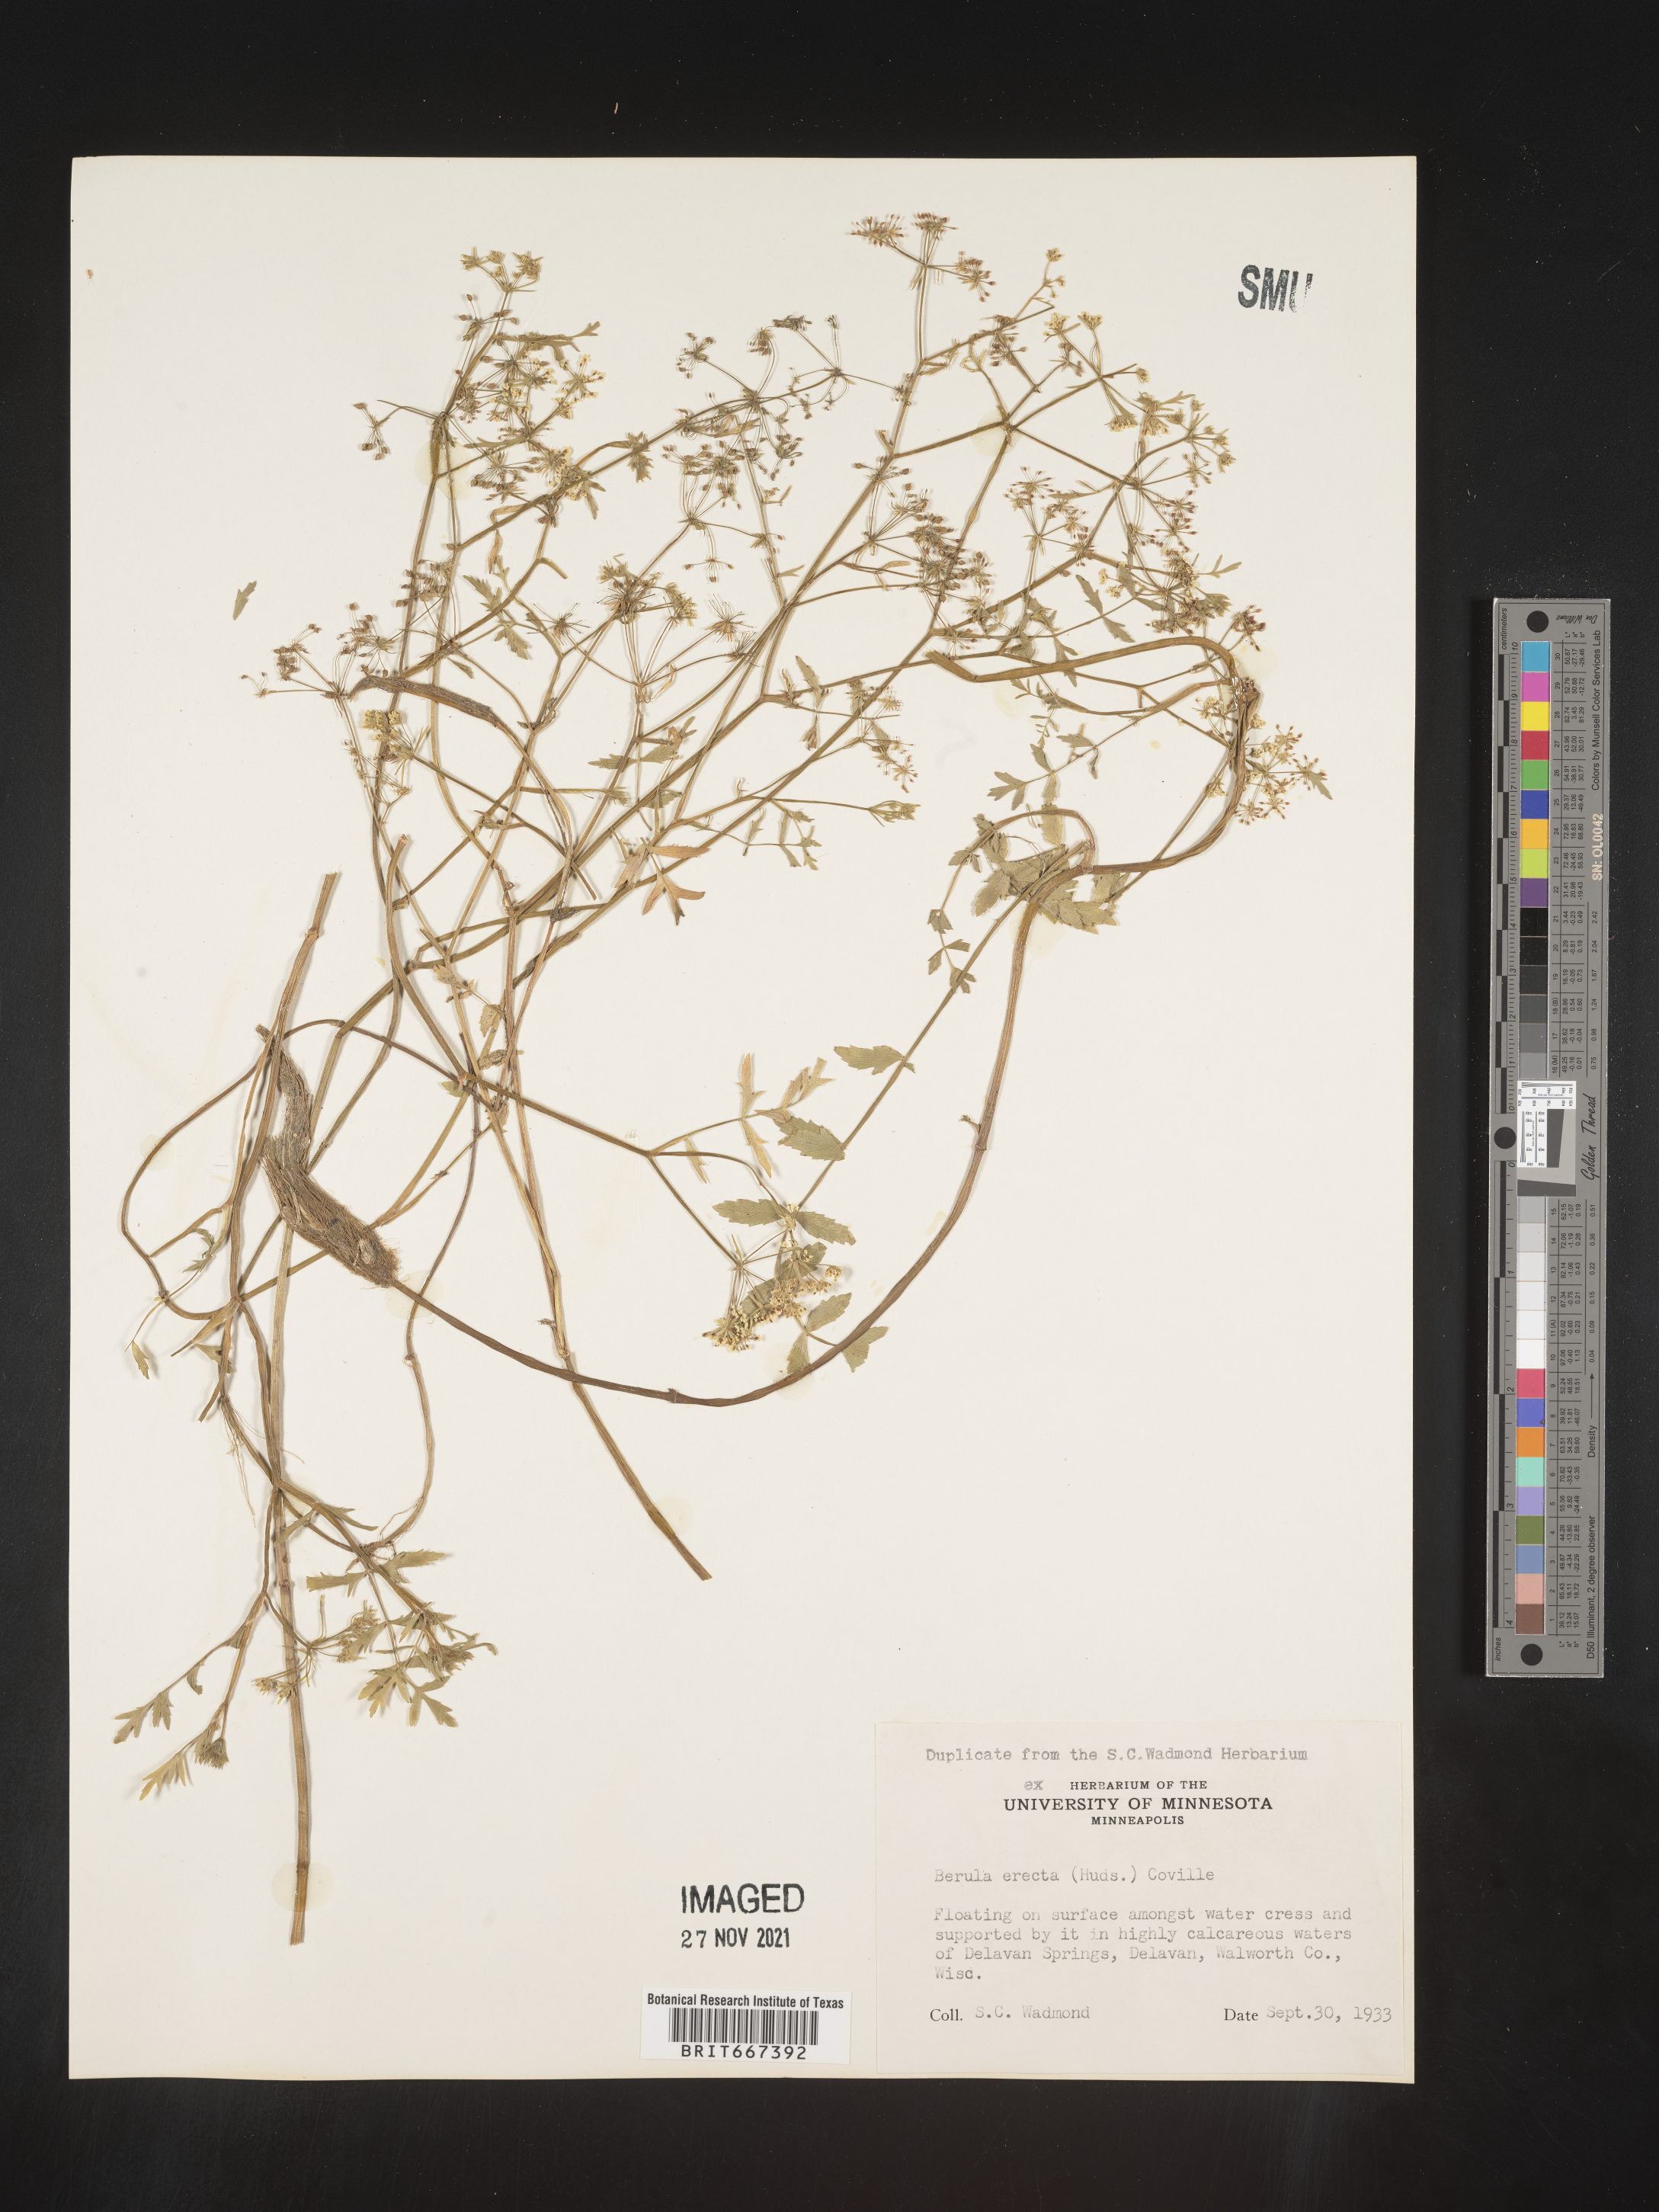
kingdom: Plantae
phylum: Tracheophyta
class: Magnoliopsida
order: Apiales
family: Apiaceae
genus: Berula
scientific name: Berula
